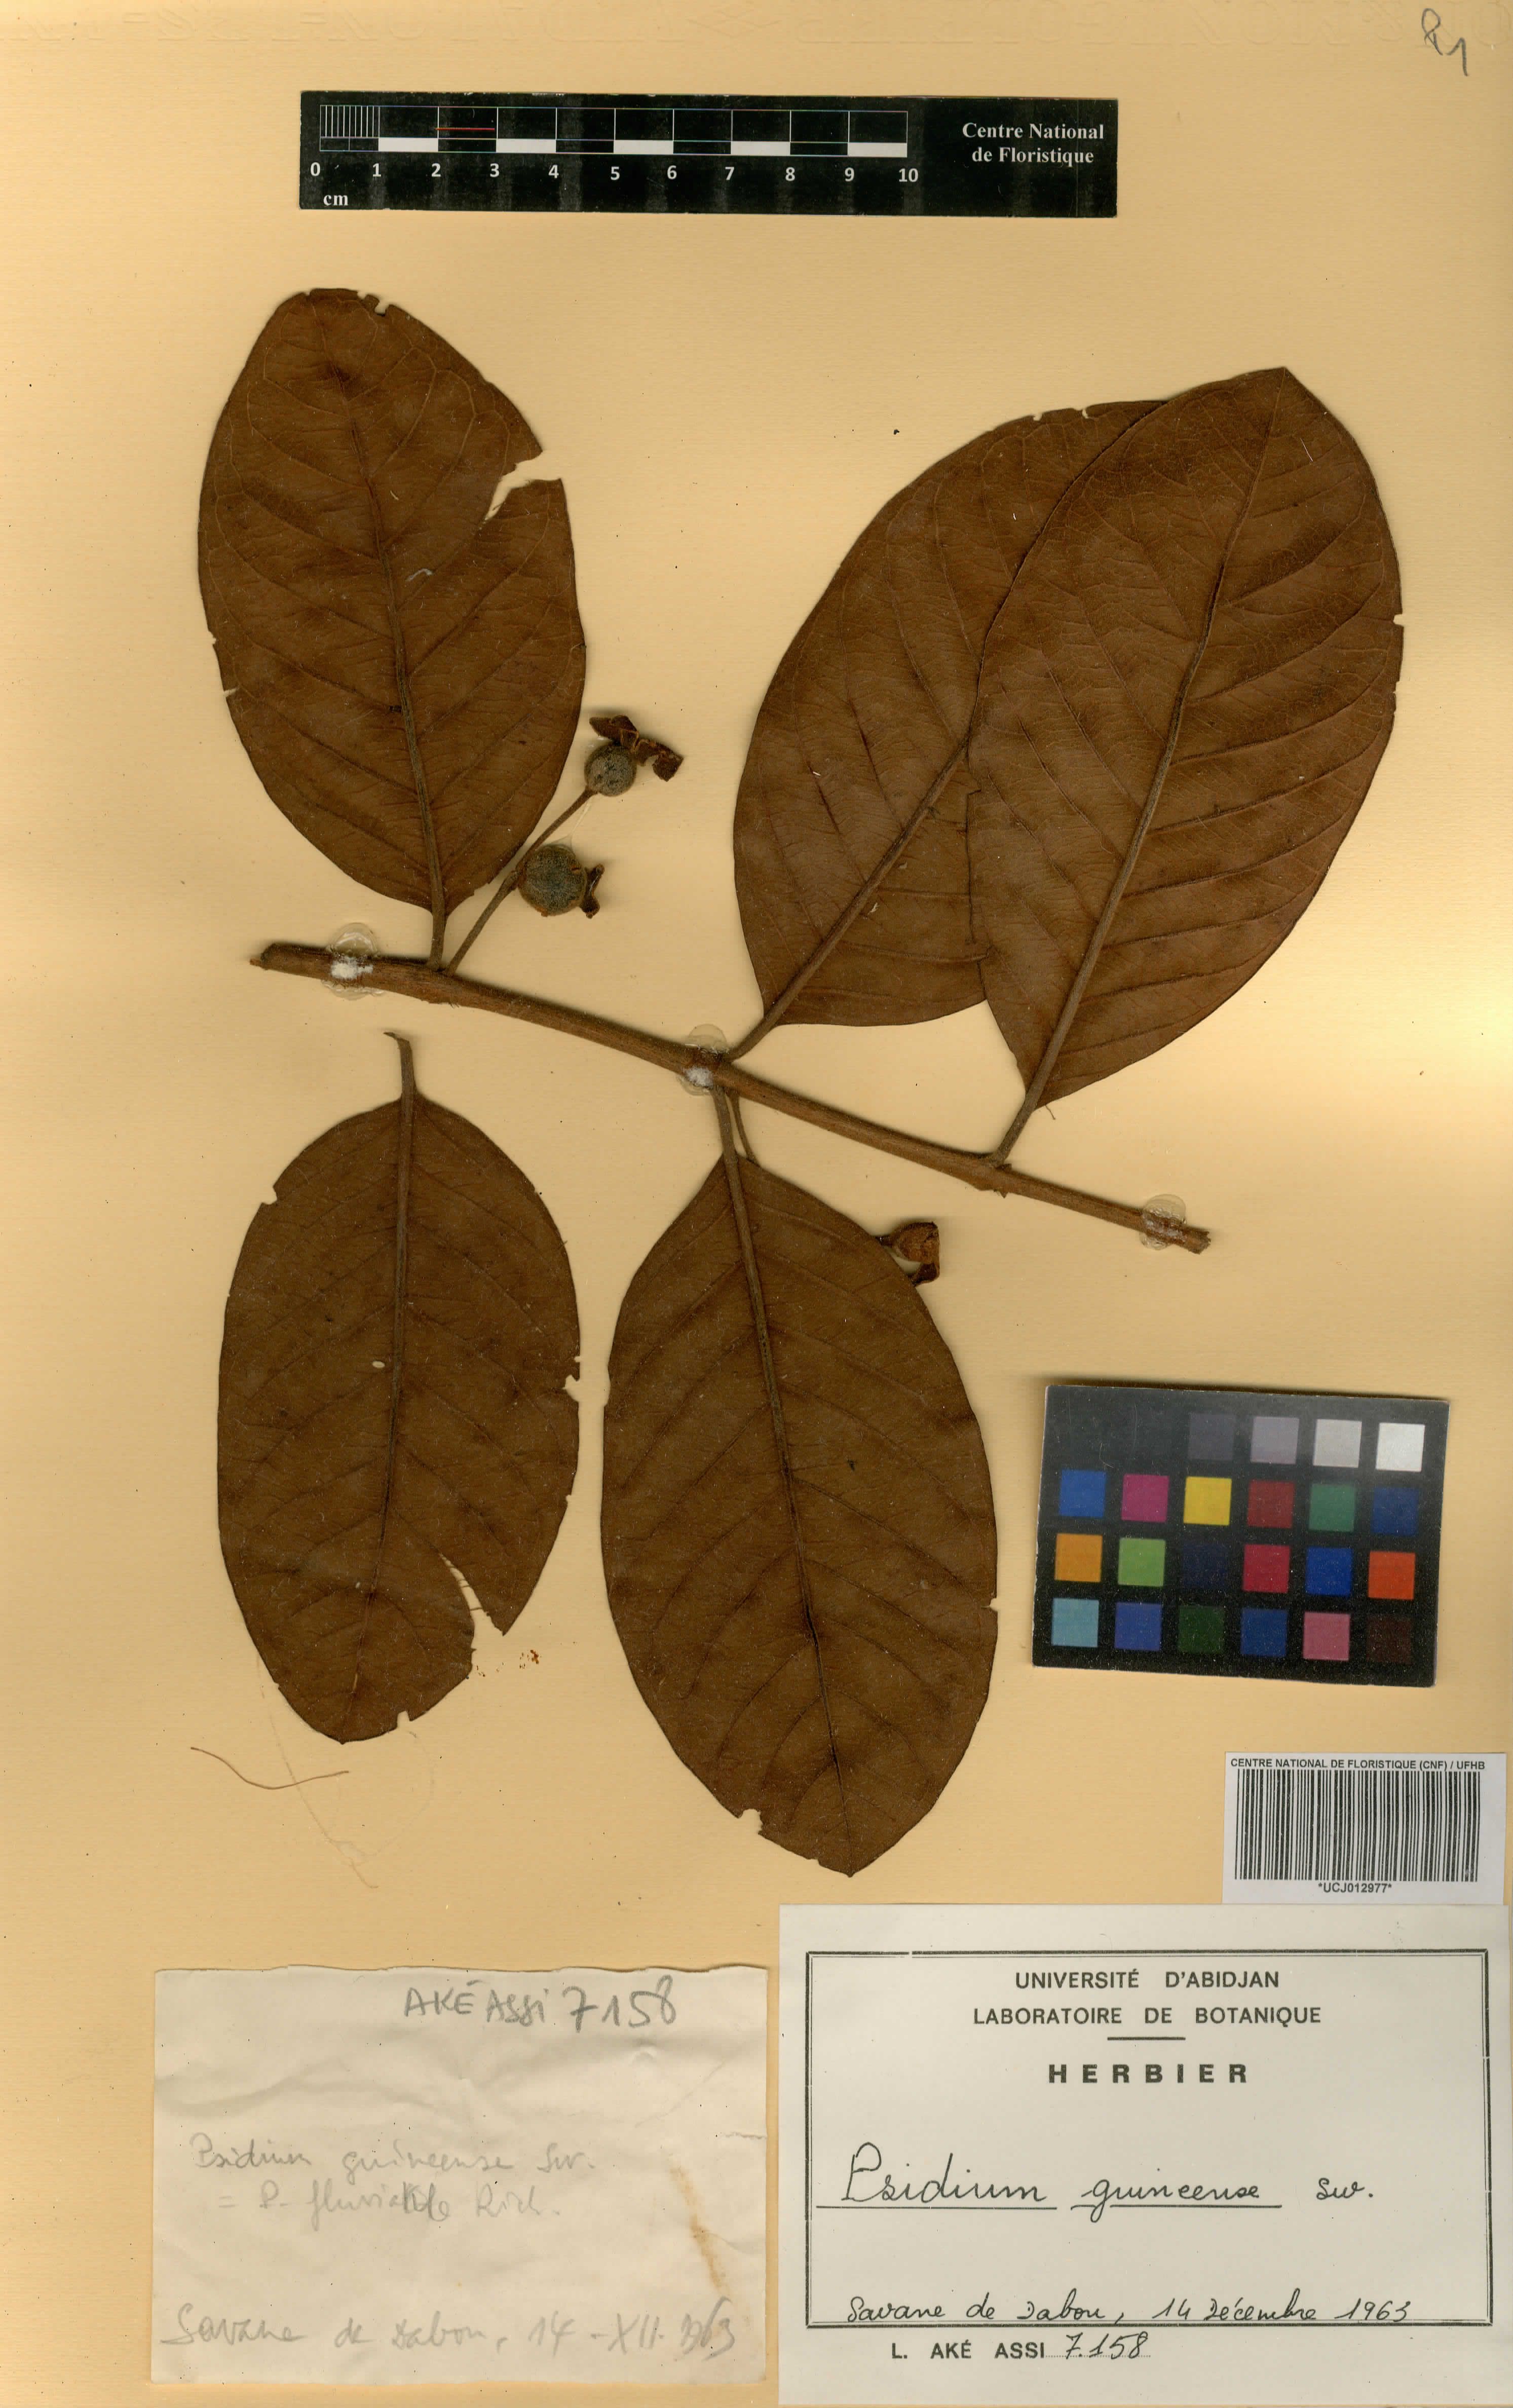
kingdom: Plantae
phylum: Tracheophyta
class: Magnoliopsida
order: Myrtales
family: Myrtaceae
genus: Psidium
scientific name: Psidium guineense
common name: Brazilian guava
